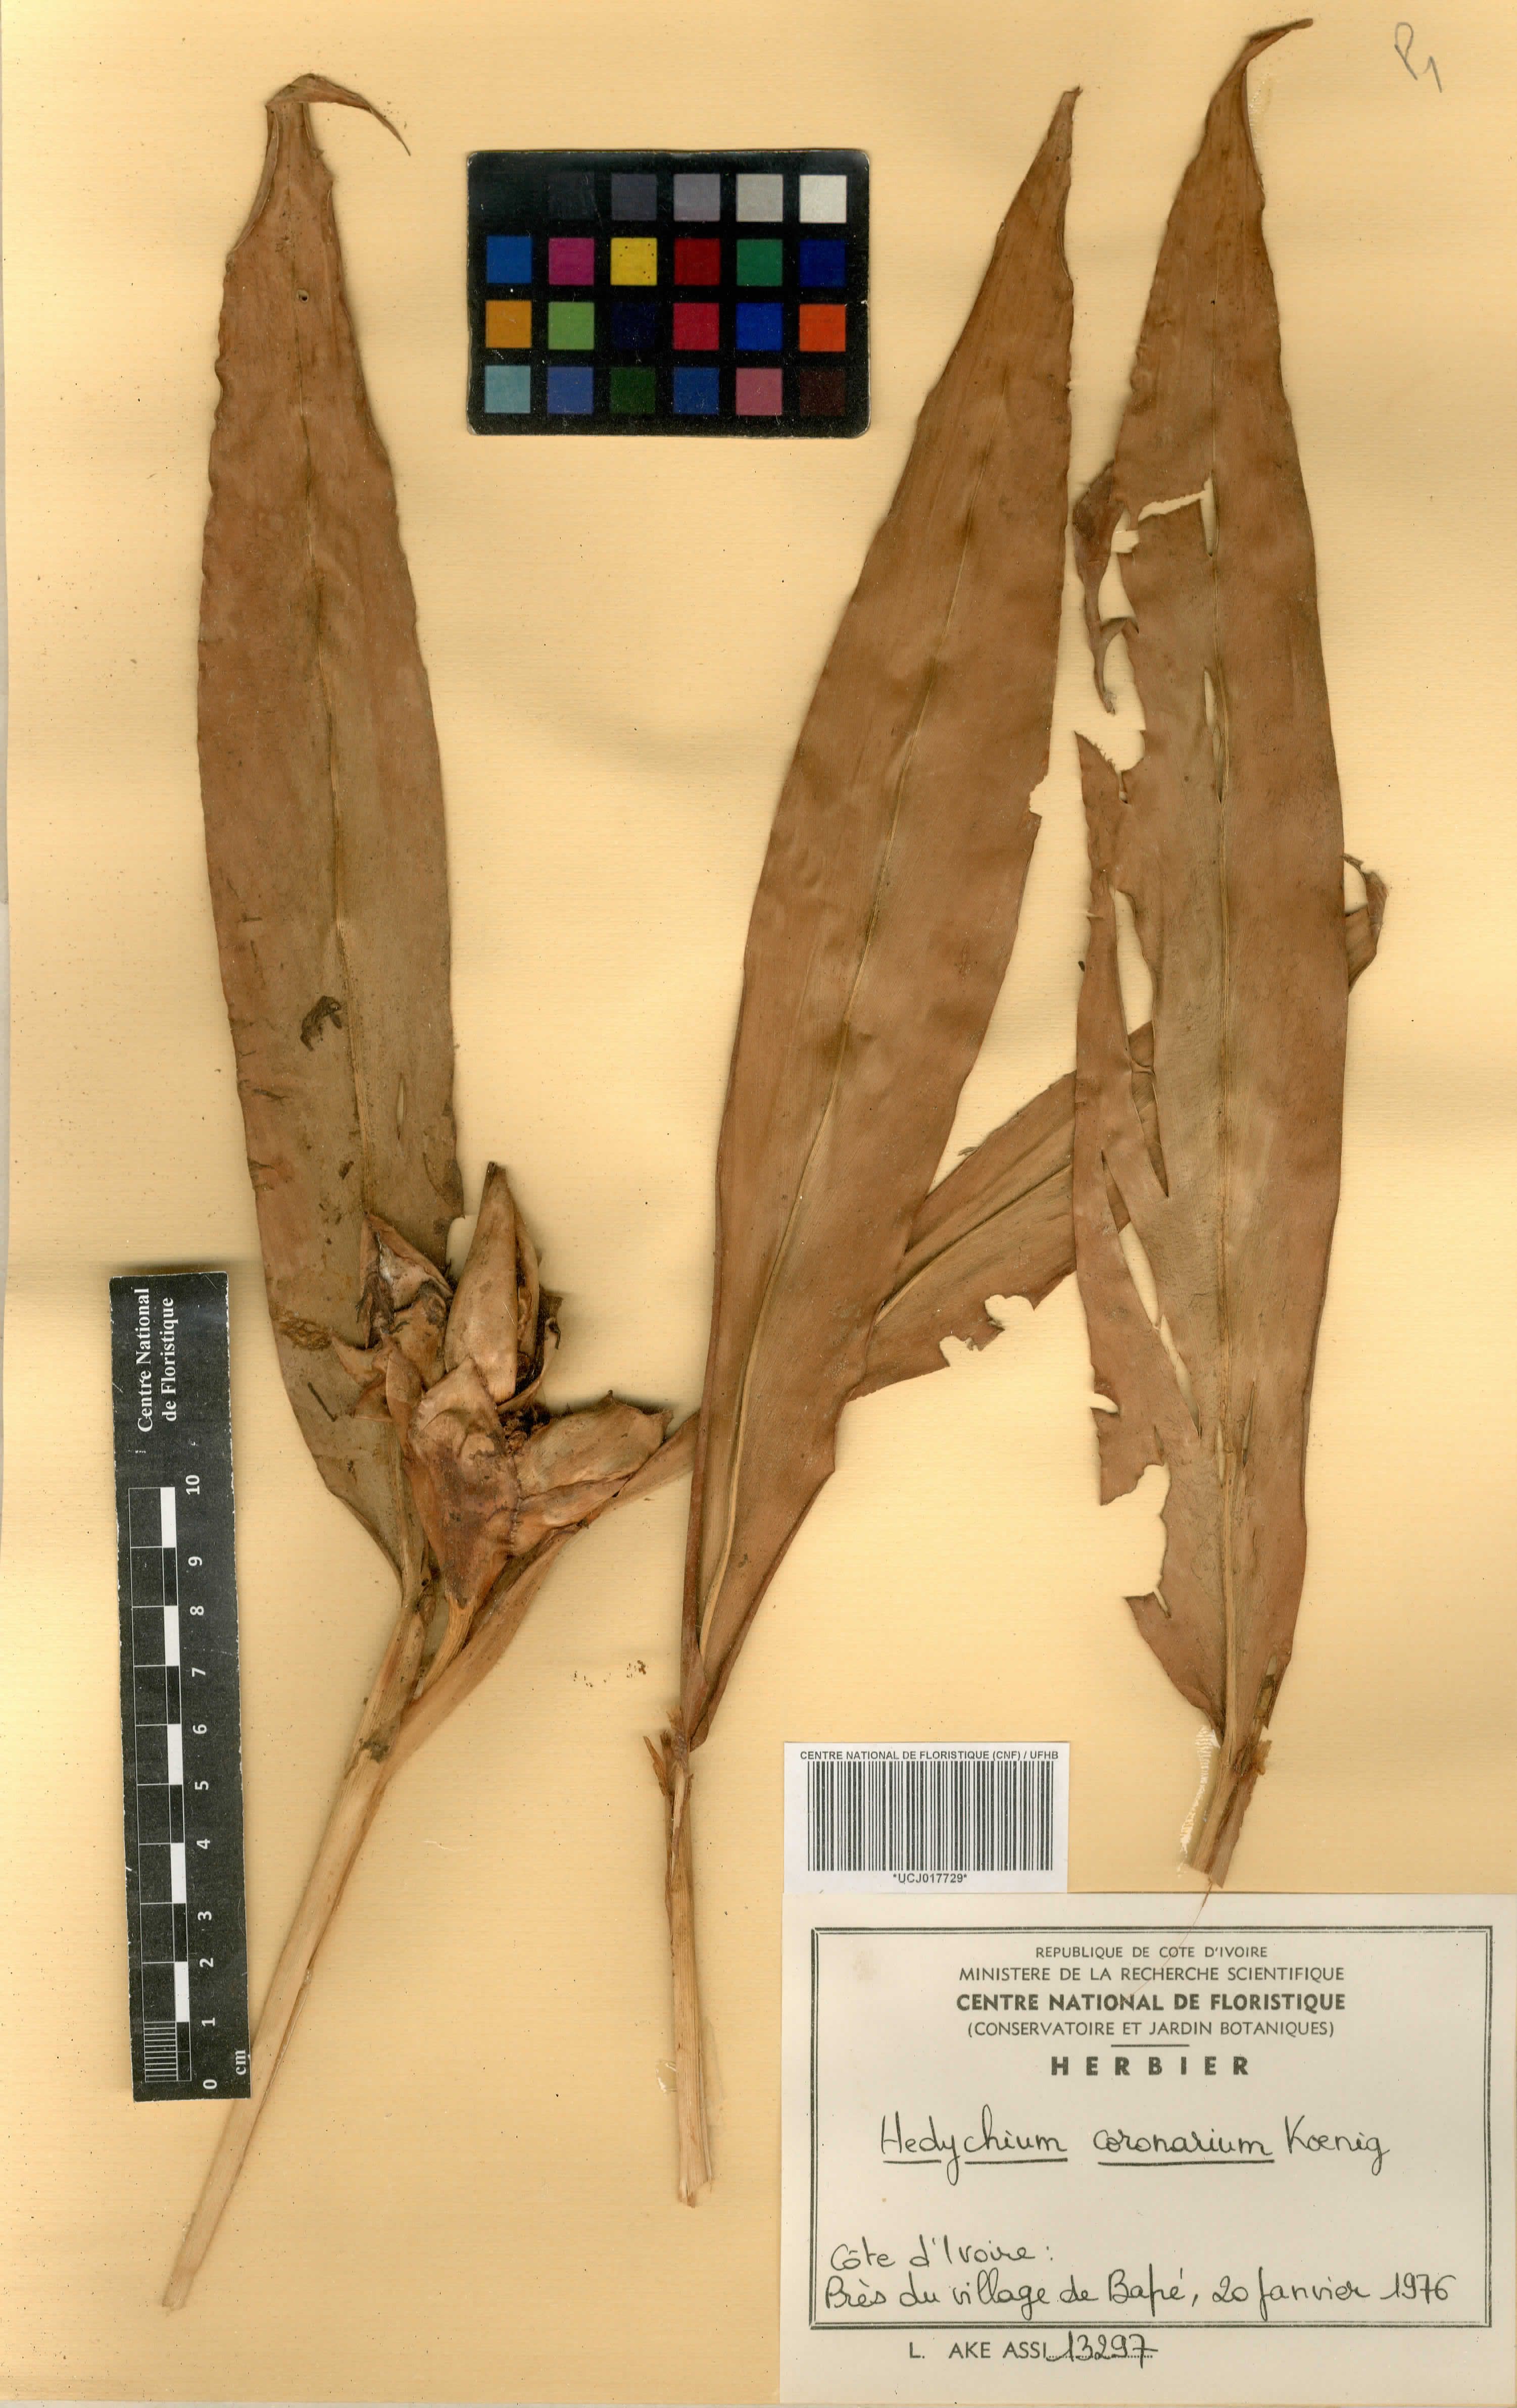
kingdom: Plantae
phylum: Tracheophyta
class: Liliopsida
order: Zingiberales
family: Zingiberaceae
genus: Hedychium
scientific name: Hedychium coronarium
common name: White garland-lily
